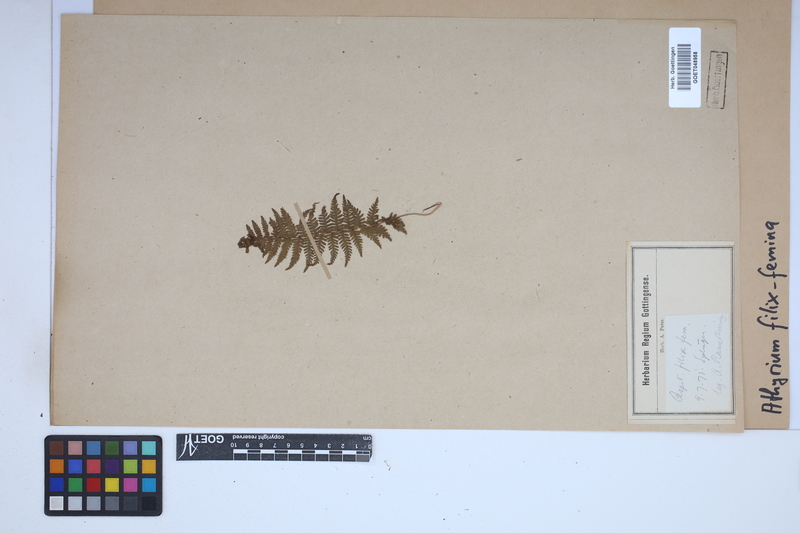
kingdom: Plantae
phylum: Tracheophyta
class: Polypodiopsida
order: Polypodiales
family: Athyriaceae
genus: Athyrium
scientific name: Athyrium filix-femina
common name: Lady fern
